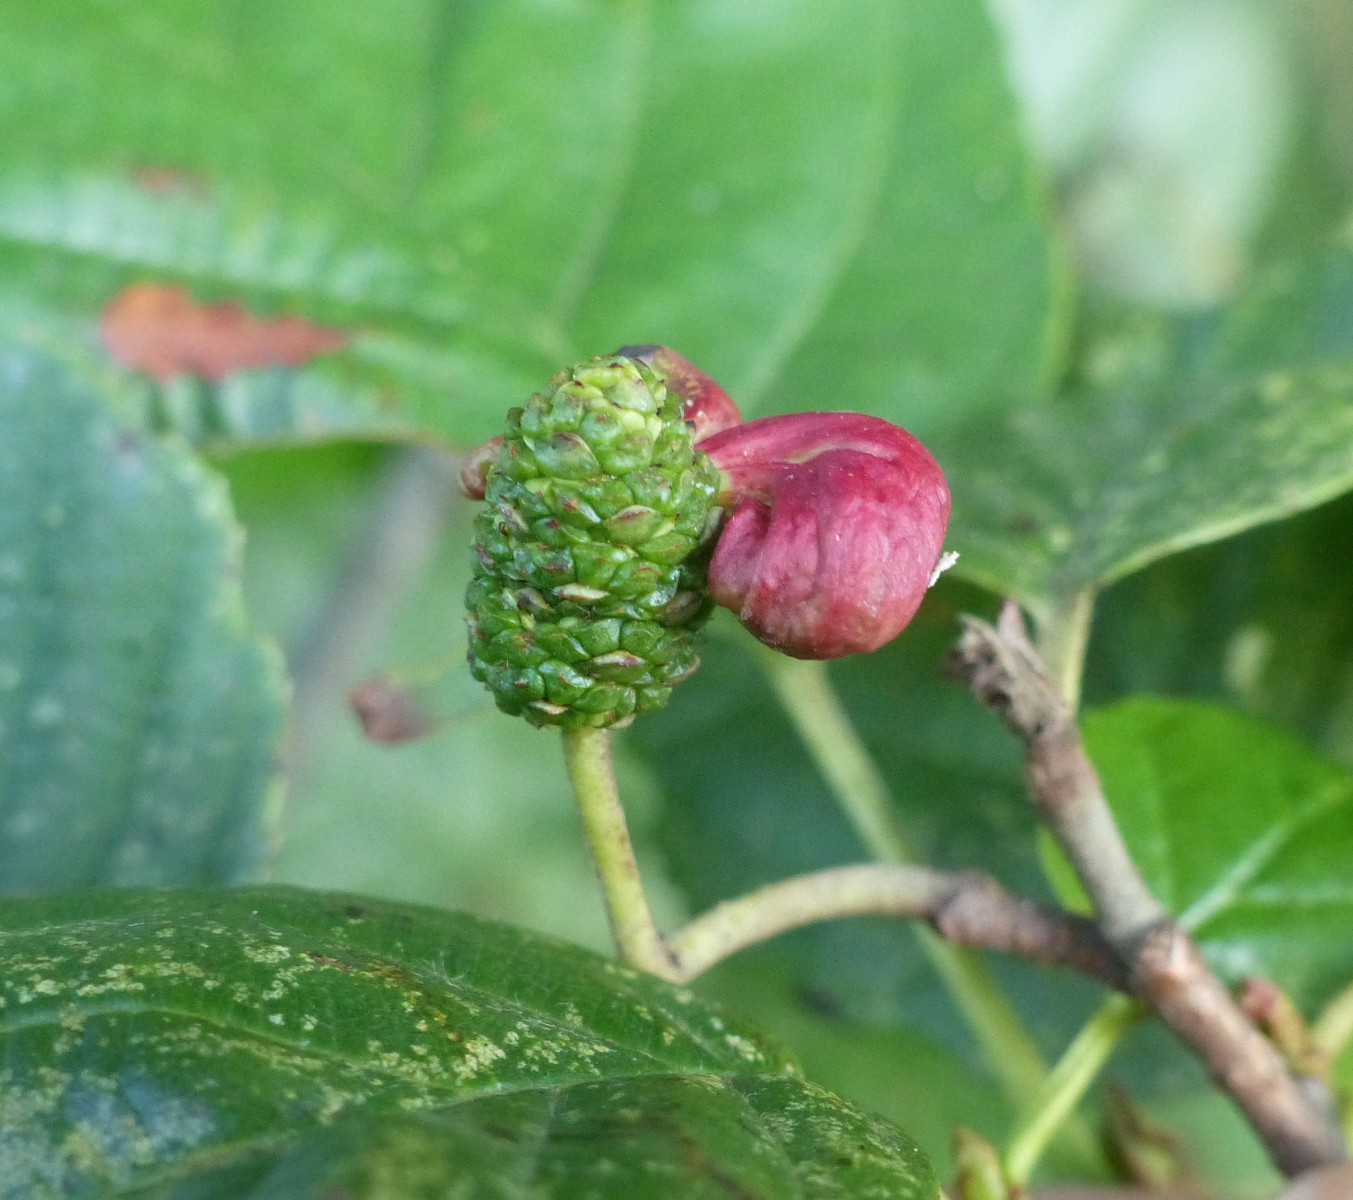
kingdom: Fungi
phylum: Ascomycota
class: Taphrinomycetes
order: Taphrinales
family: Taphrinaceae
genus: Taphrina
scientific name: Taphrina alni
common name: Alder tongue
